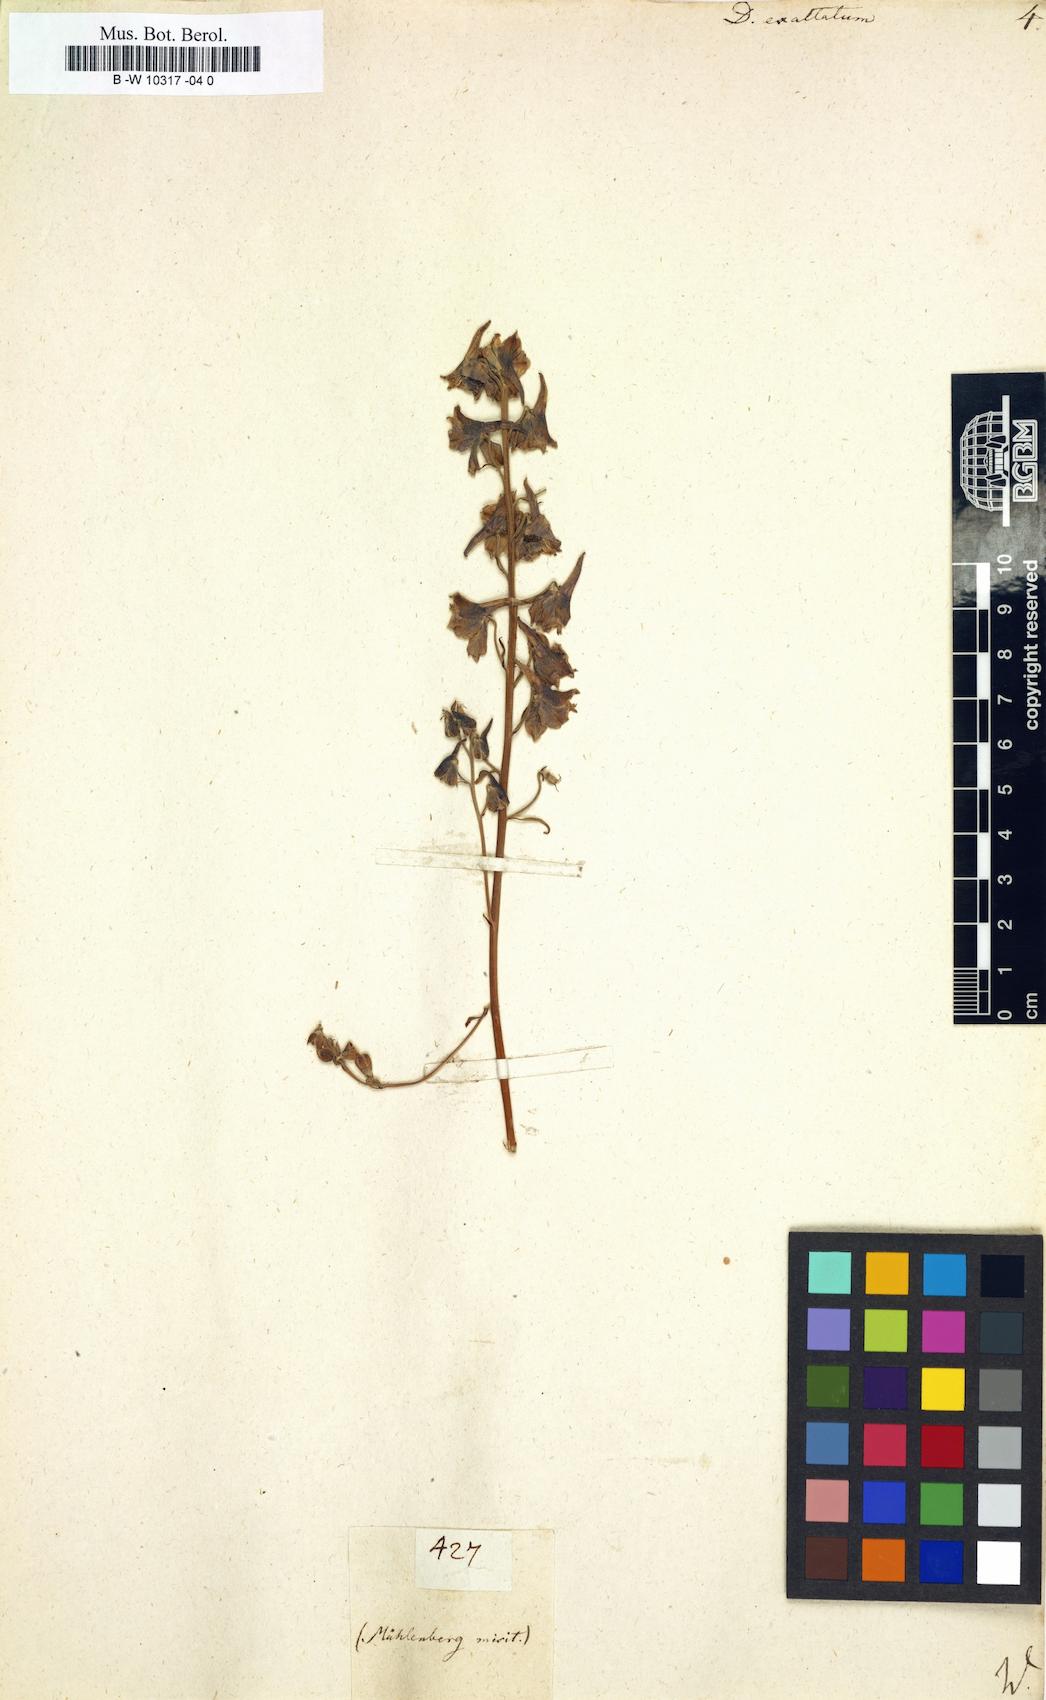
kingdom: Plantae
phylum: Tracheophyta
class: Magnoliopsida
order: Ranunculales
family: Ranunculaceae
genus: Delphinium
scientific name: Delphinium exaltatum
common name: Tall larkspur
